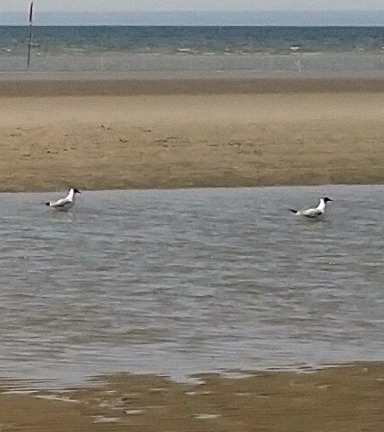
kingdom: Animalia
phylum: Chordata
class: Aves
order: Charadriiformes
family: Laridae
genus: Chroicocephalus
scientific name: Chroicocephalus ridibundus
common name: Hættemåge
